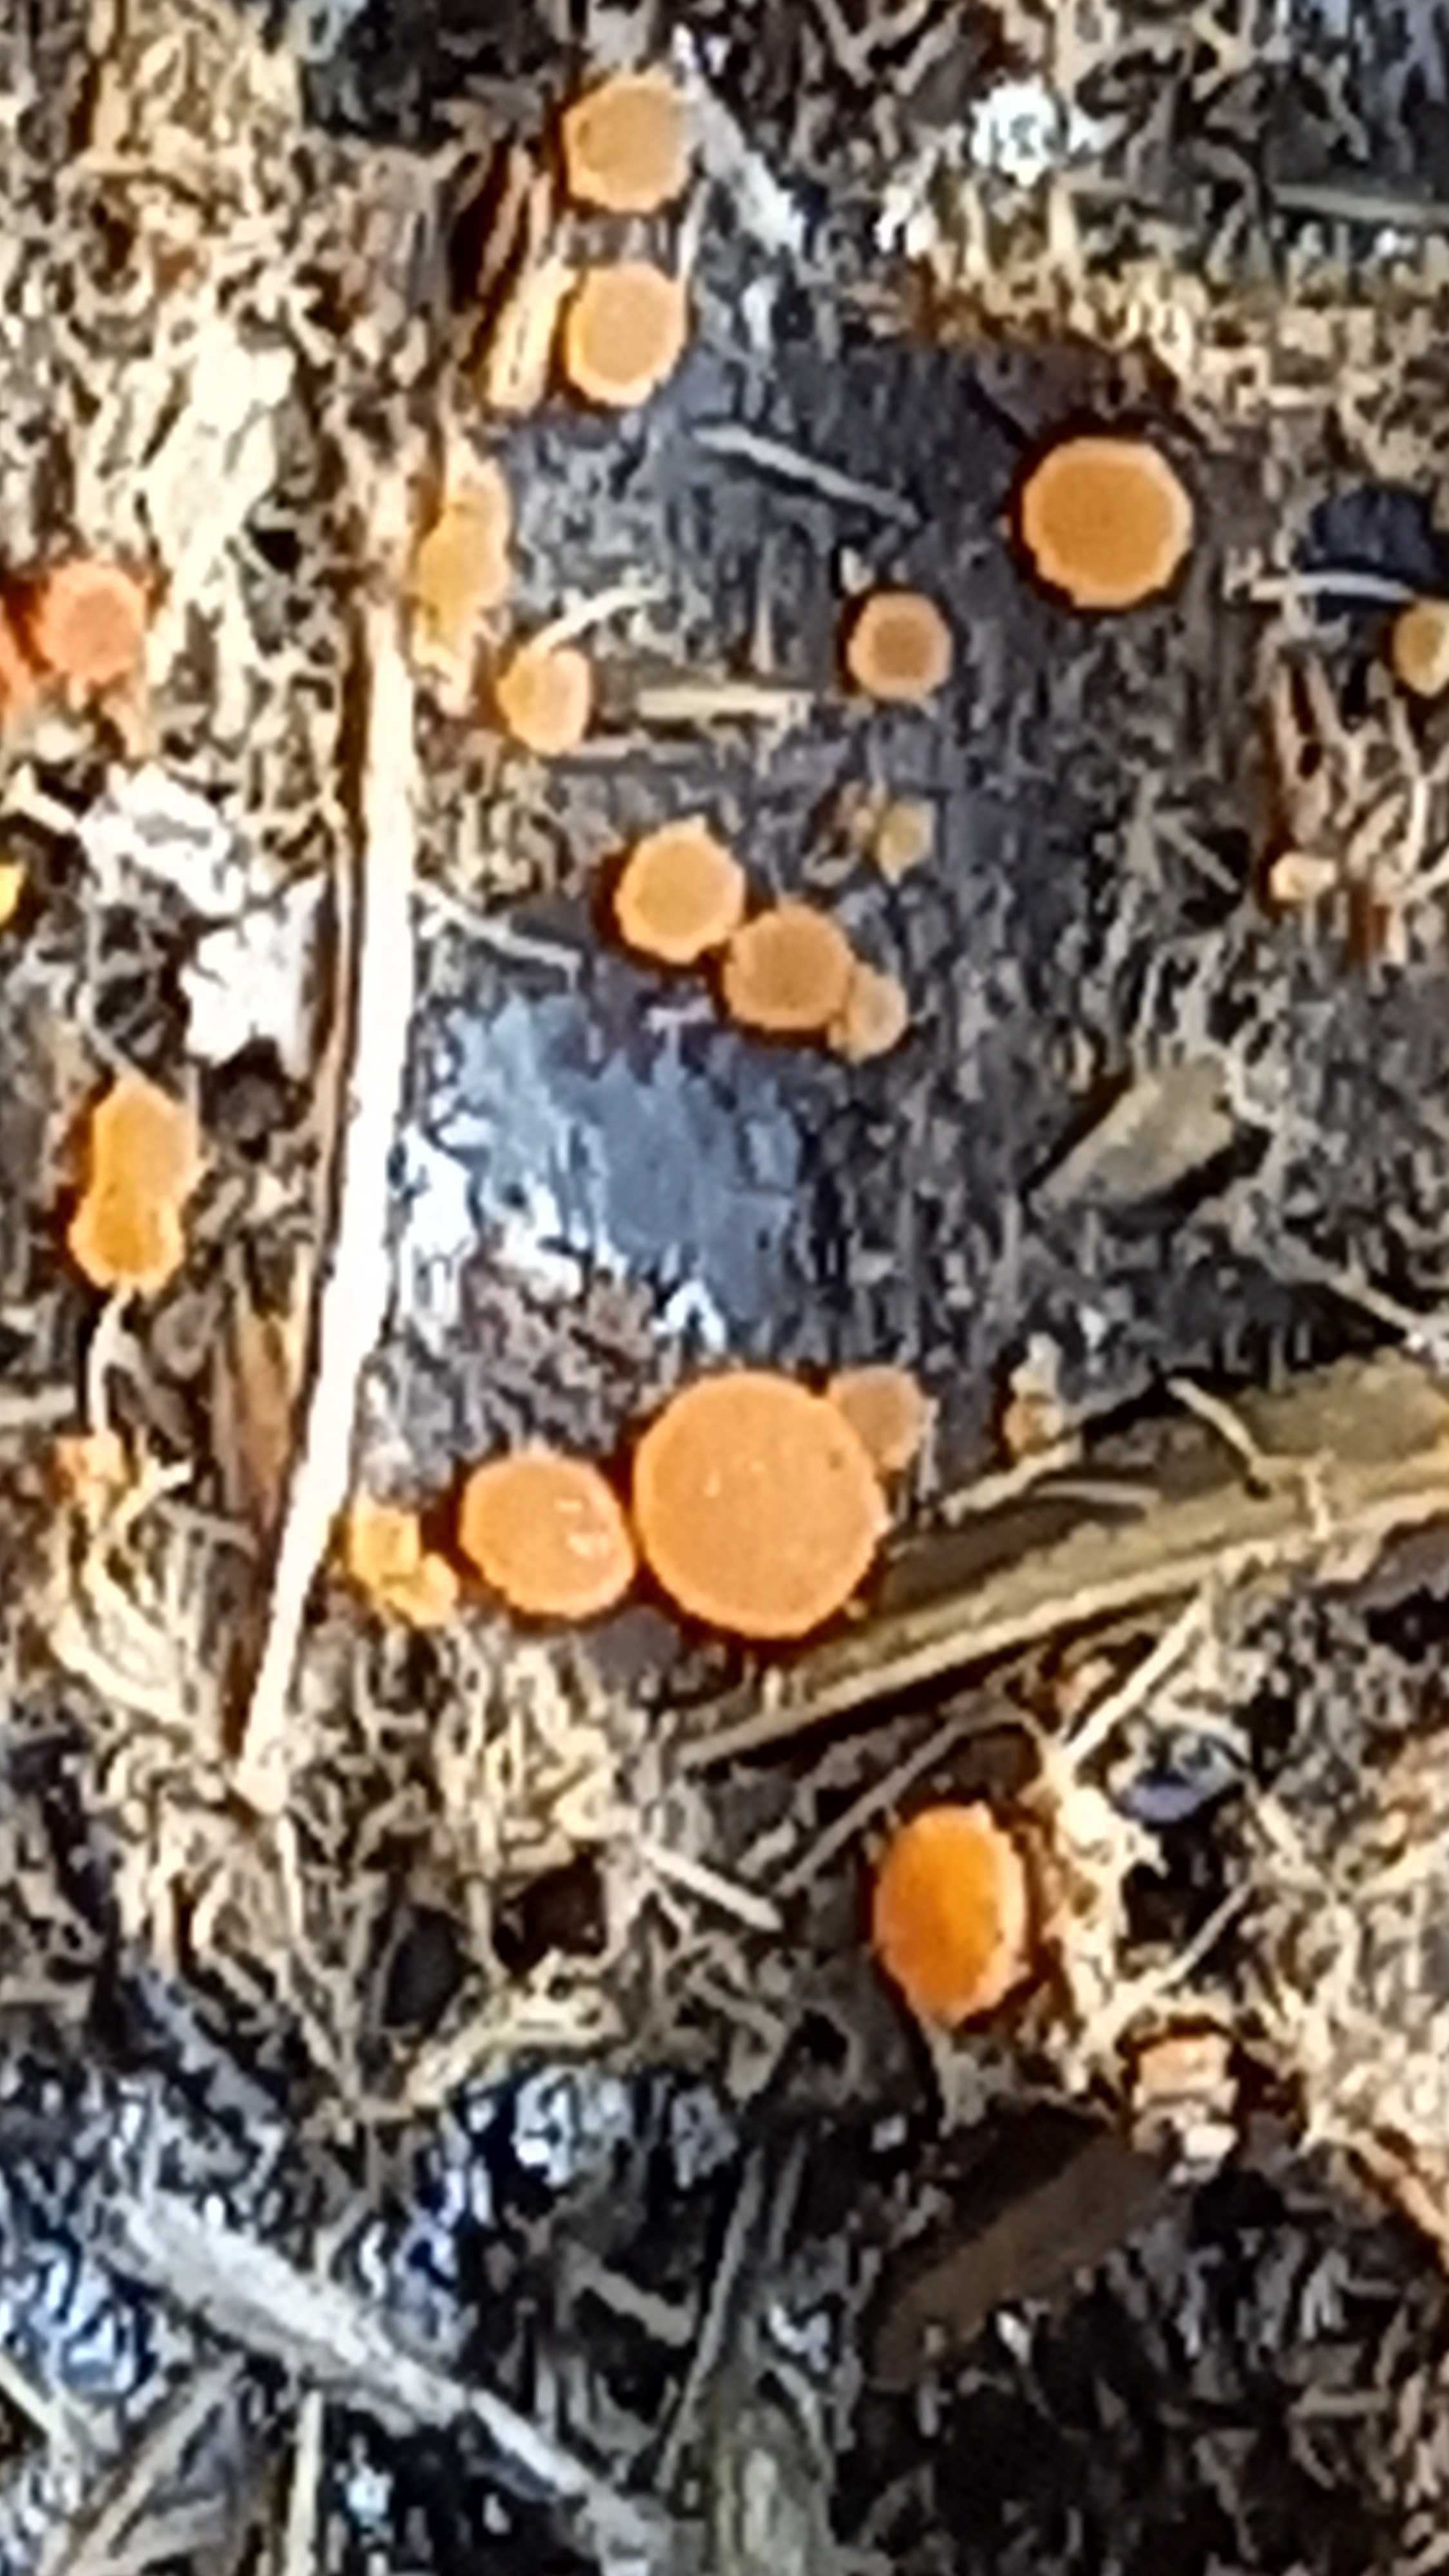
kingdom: Fungi
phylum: Ascomycota
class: Pezizomycetes
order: Pezizales
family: Pyronemataceae
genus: Cheilymenia
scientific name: Cheilymenia granulata
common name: møgbæger
